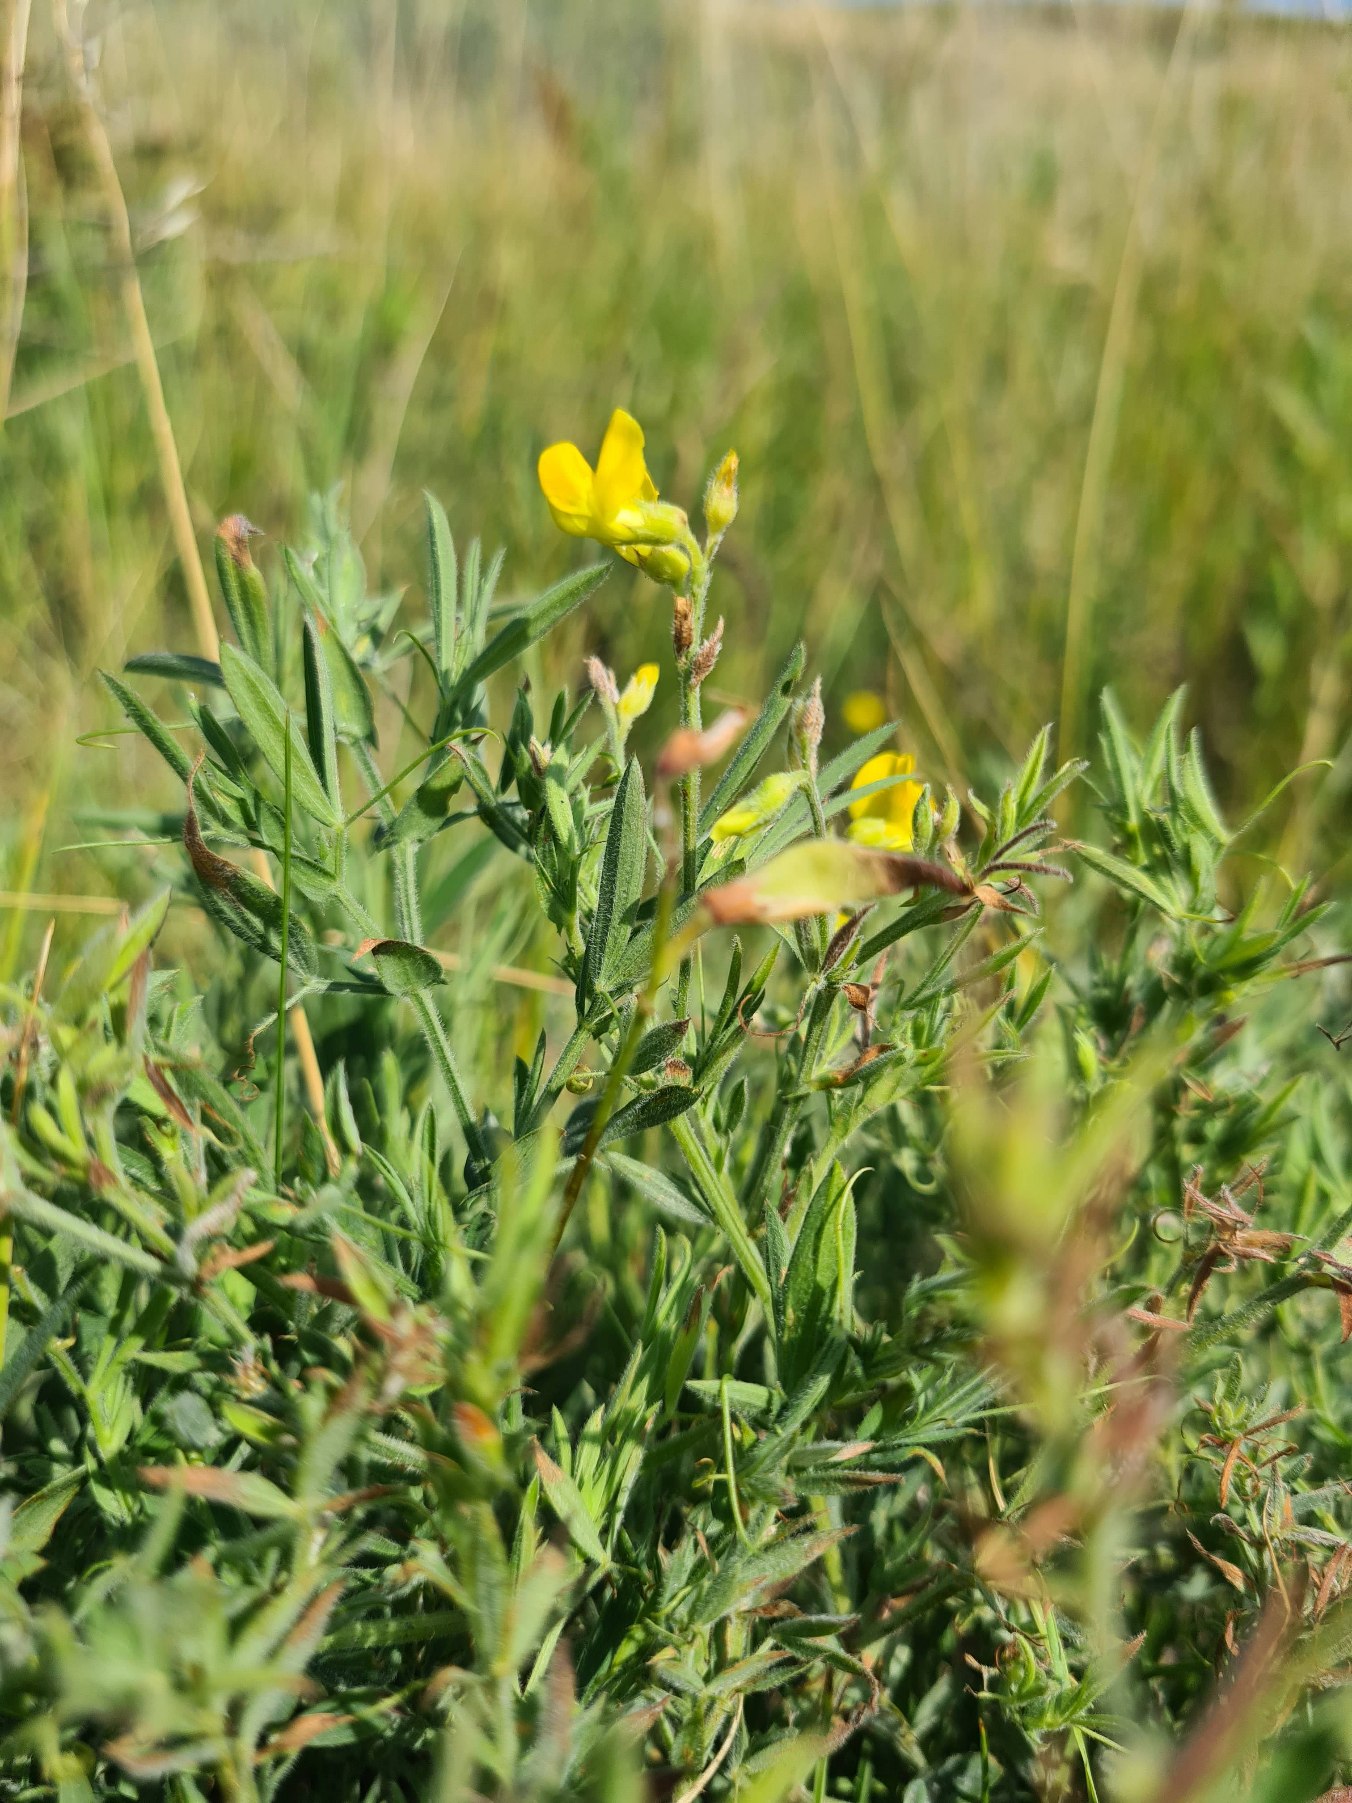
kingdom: Plantae
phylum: Tracheophyta
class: Magnoliopsida
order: Fabales
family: Fabaceae
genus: Lathyrus
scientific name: Lathyrus pratensis
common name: Gul fladbælg
